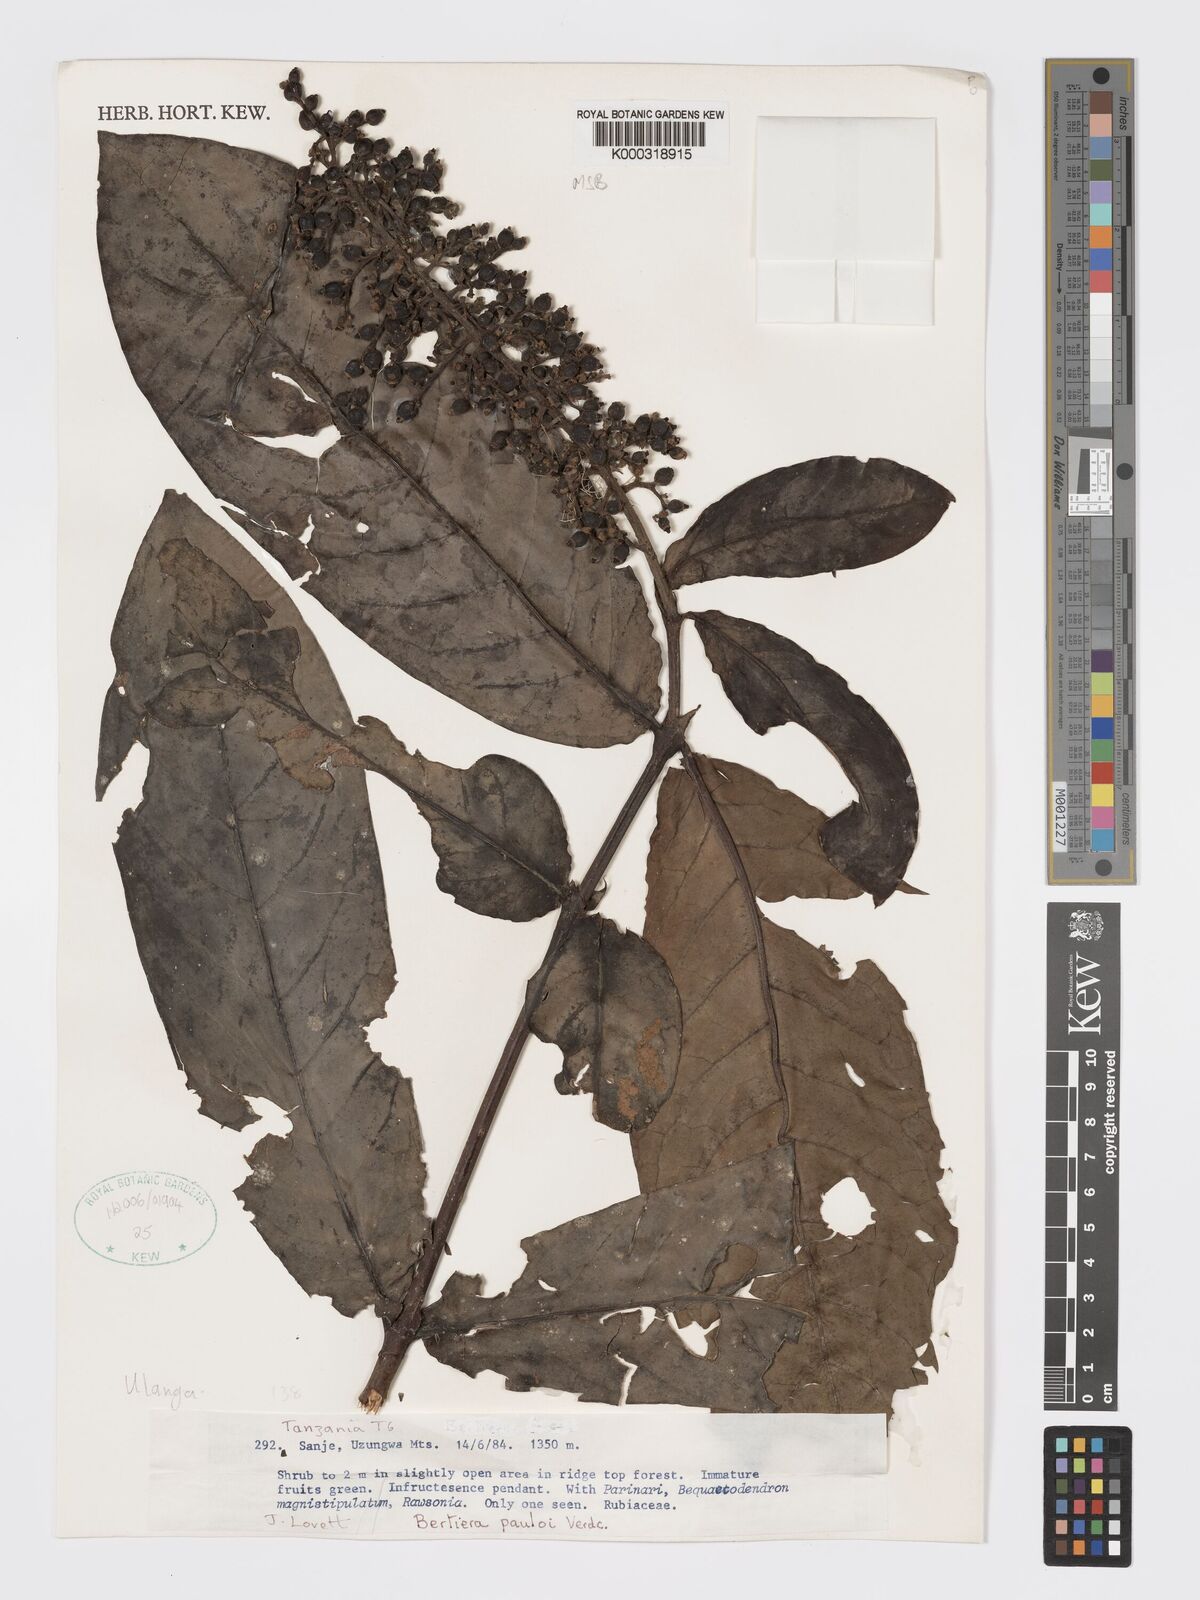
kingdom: Plantae
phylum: Tracheophyta
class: Magnoliopsida
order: Gentianales
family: Rubiaceae
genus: Bertiera
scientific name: Bertiera pauloi
